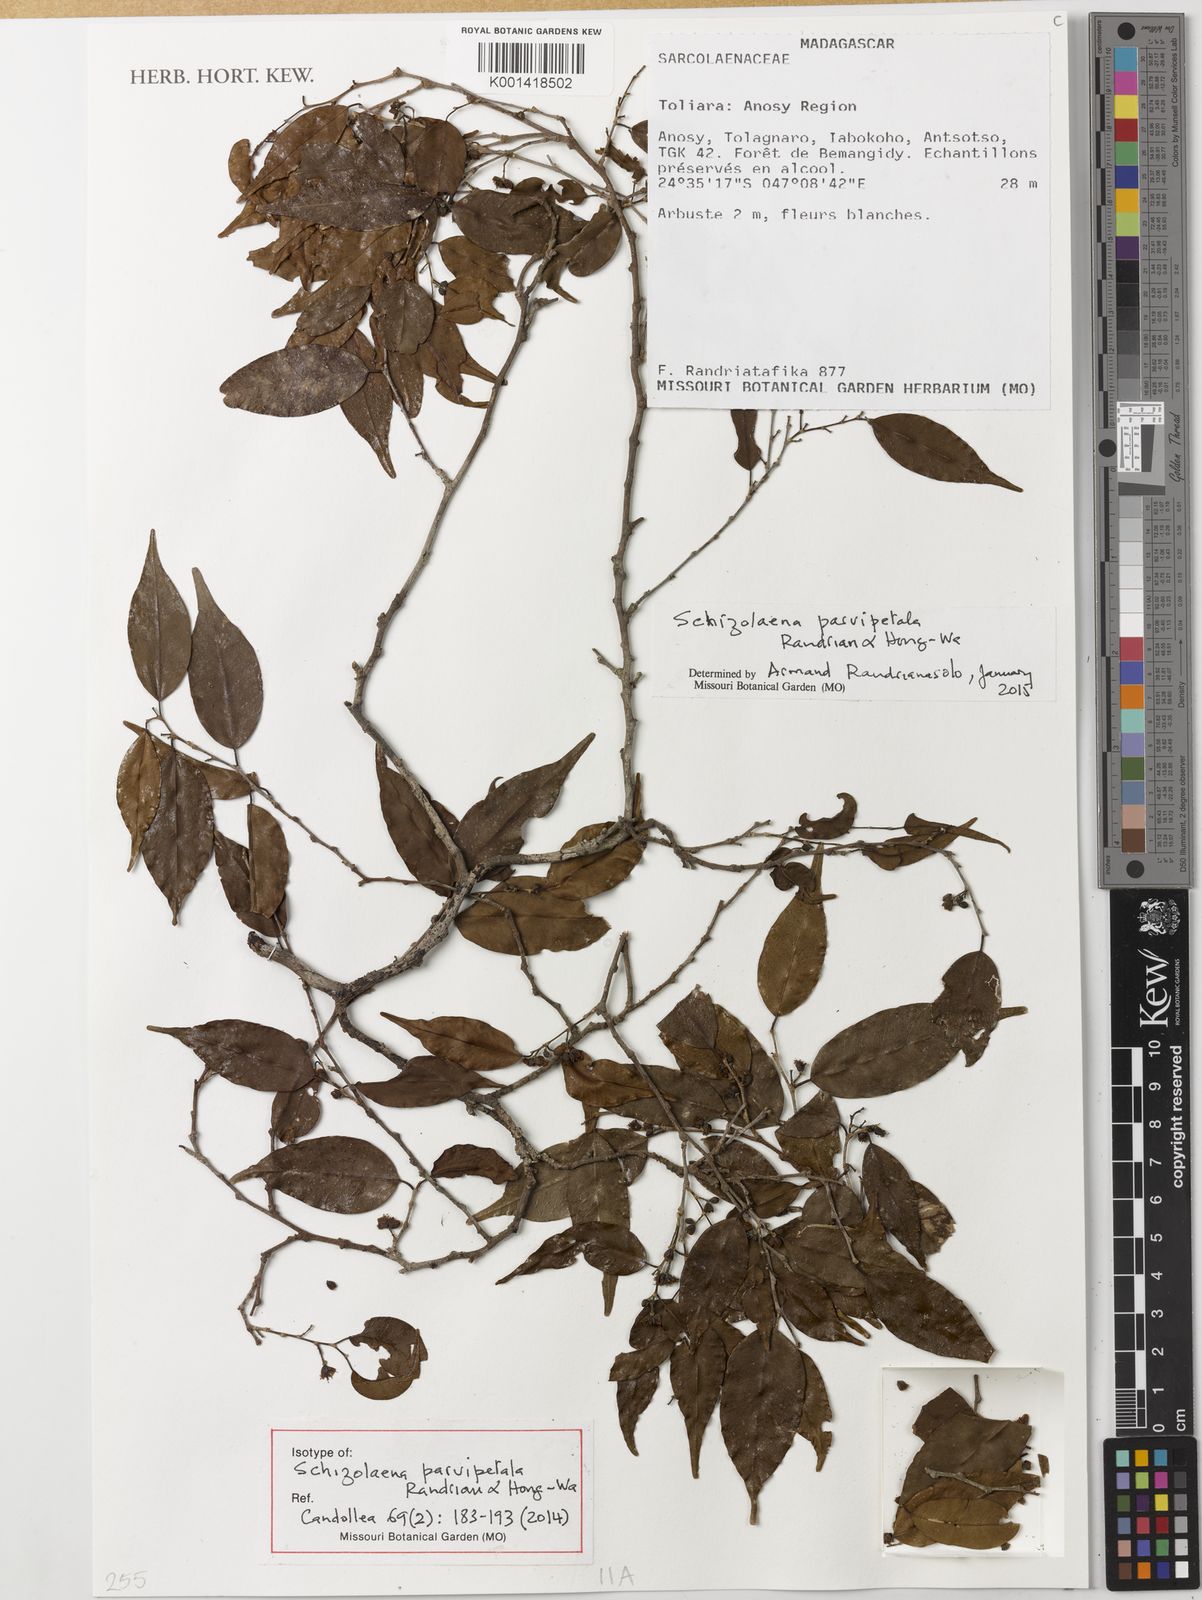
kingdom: Plantae
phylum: Tracheophyta
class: Magnoliopsida
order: Malvales
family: Sarcolaenaceae
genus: Schizolaena
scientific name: Schizolaena parvipetala
